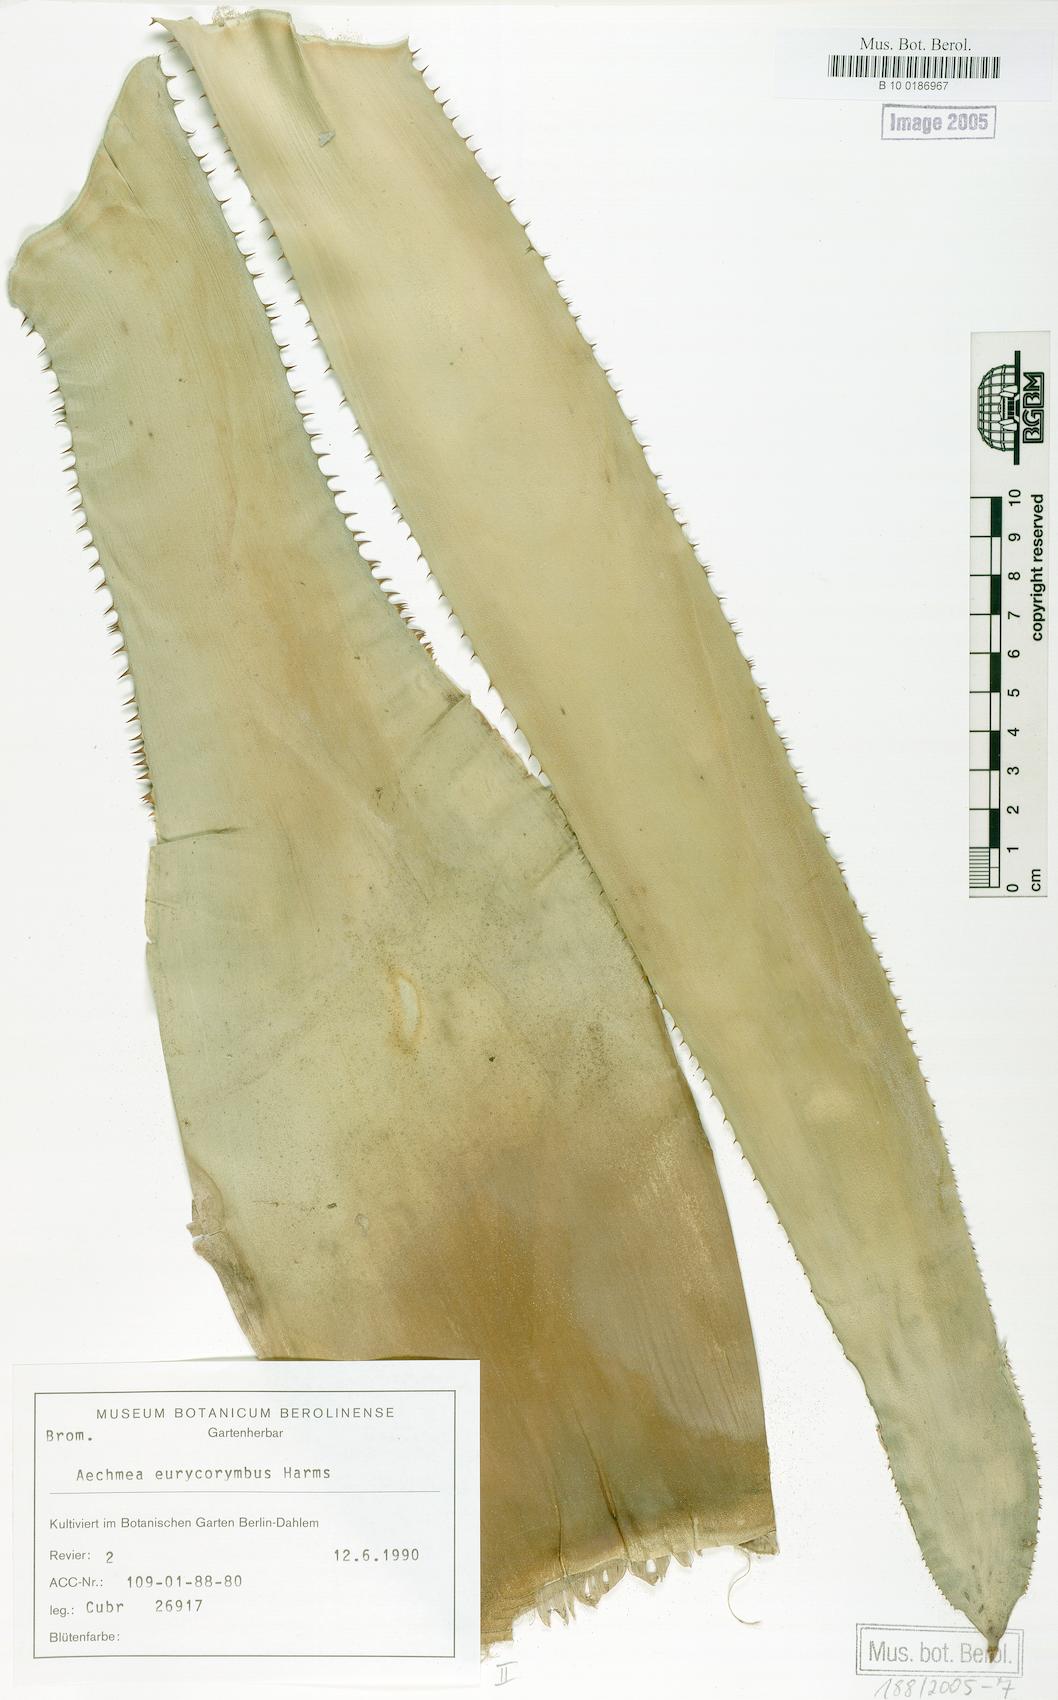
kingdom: Plantae
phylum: Tracheophyta
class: Liliopsida
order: Poales
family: Bromeliaceae
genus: Aechmea
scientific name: Aechmea eurycorymbus
